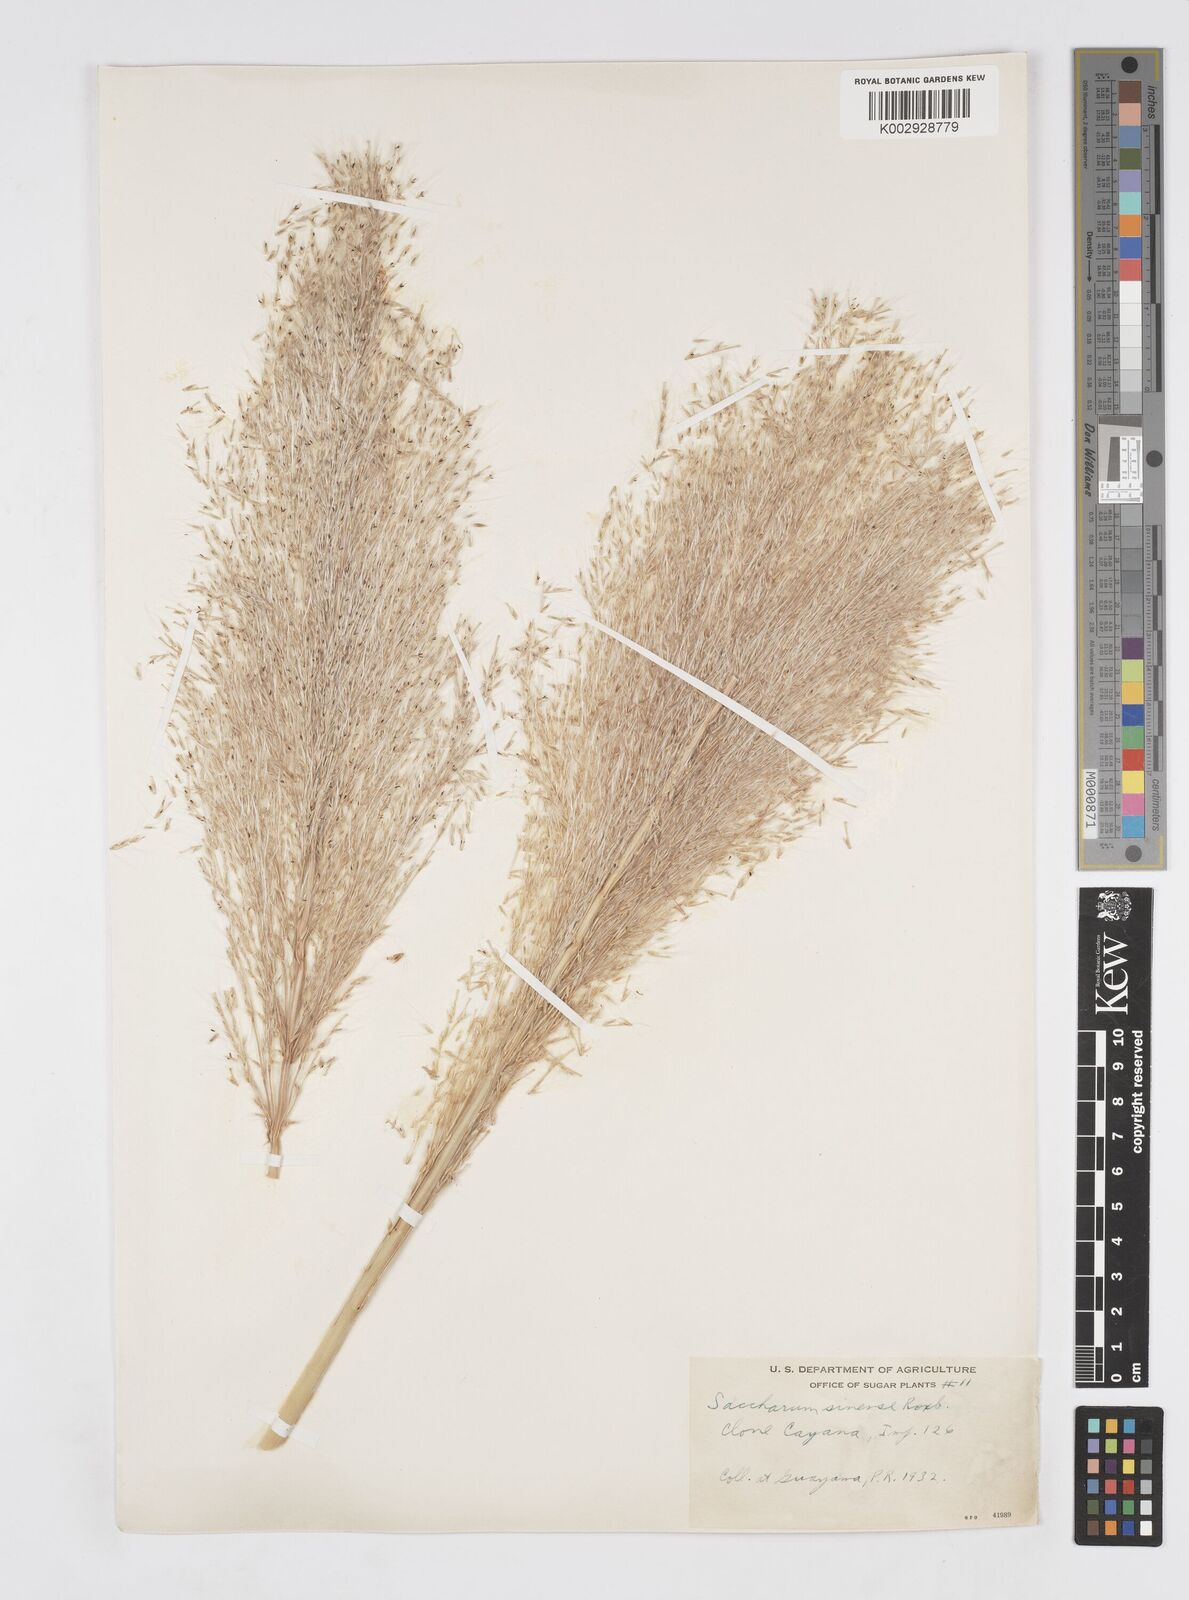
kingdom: Plantae
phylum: Tracheophyta
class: Liliopsida
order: Poales
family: Poaceae
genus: Saccharum
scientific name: Saccharum officinarum
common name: Sugarcane
